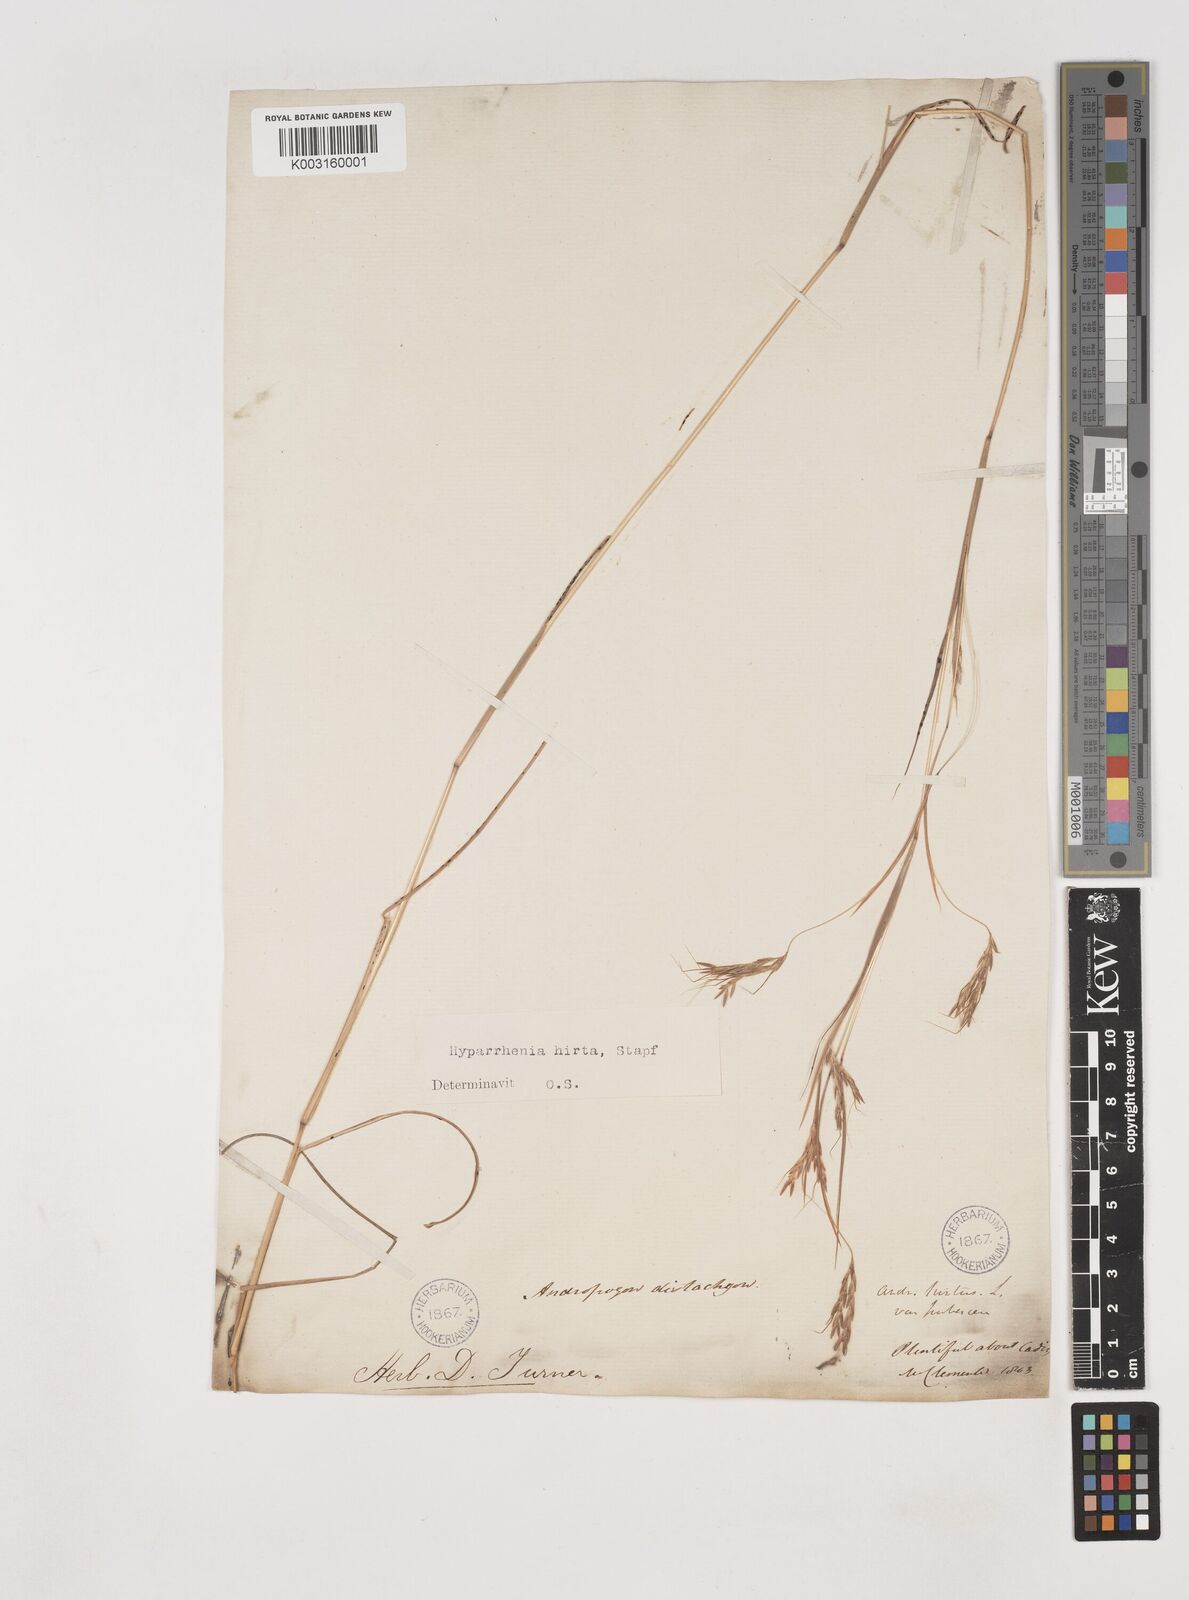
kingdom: Plantae
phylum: Tracheophyta
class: Liliopsida
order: Poales
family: Poaceae
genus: Hyparrhenia
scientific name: Hyparrhenia hirta
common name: Thatching grass
